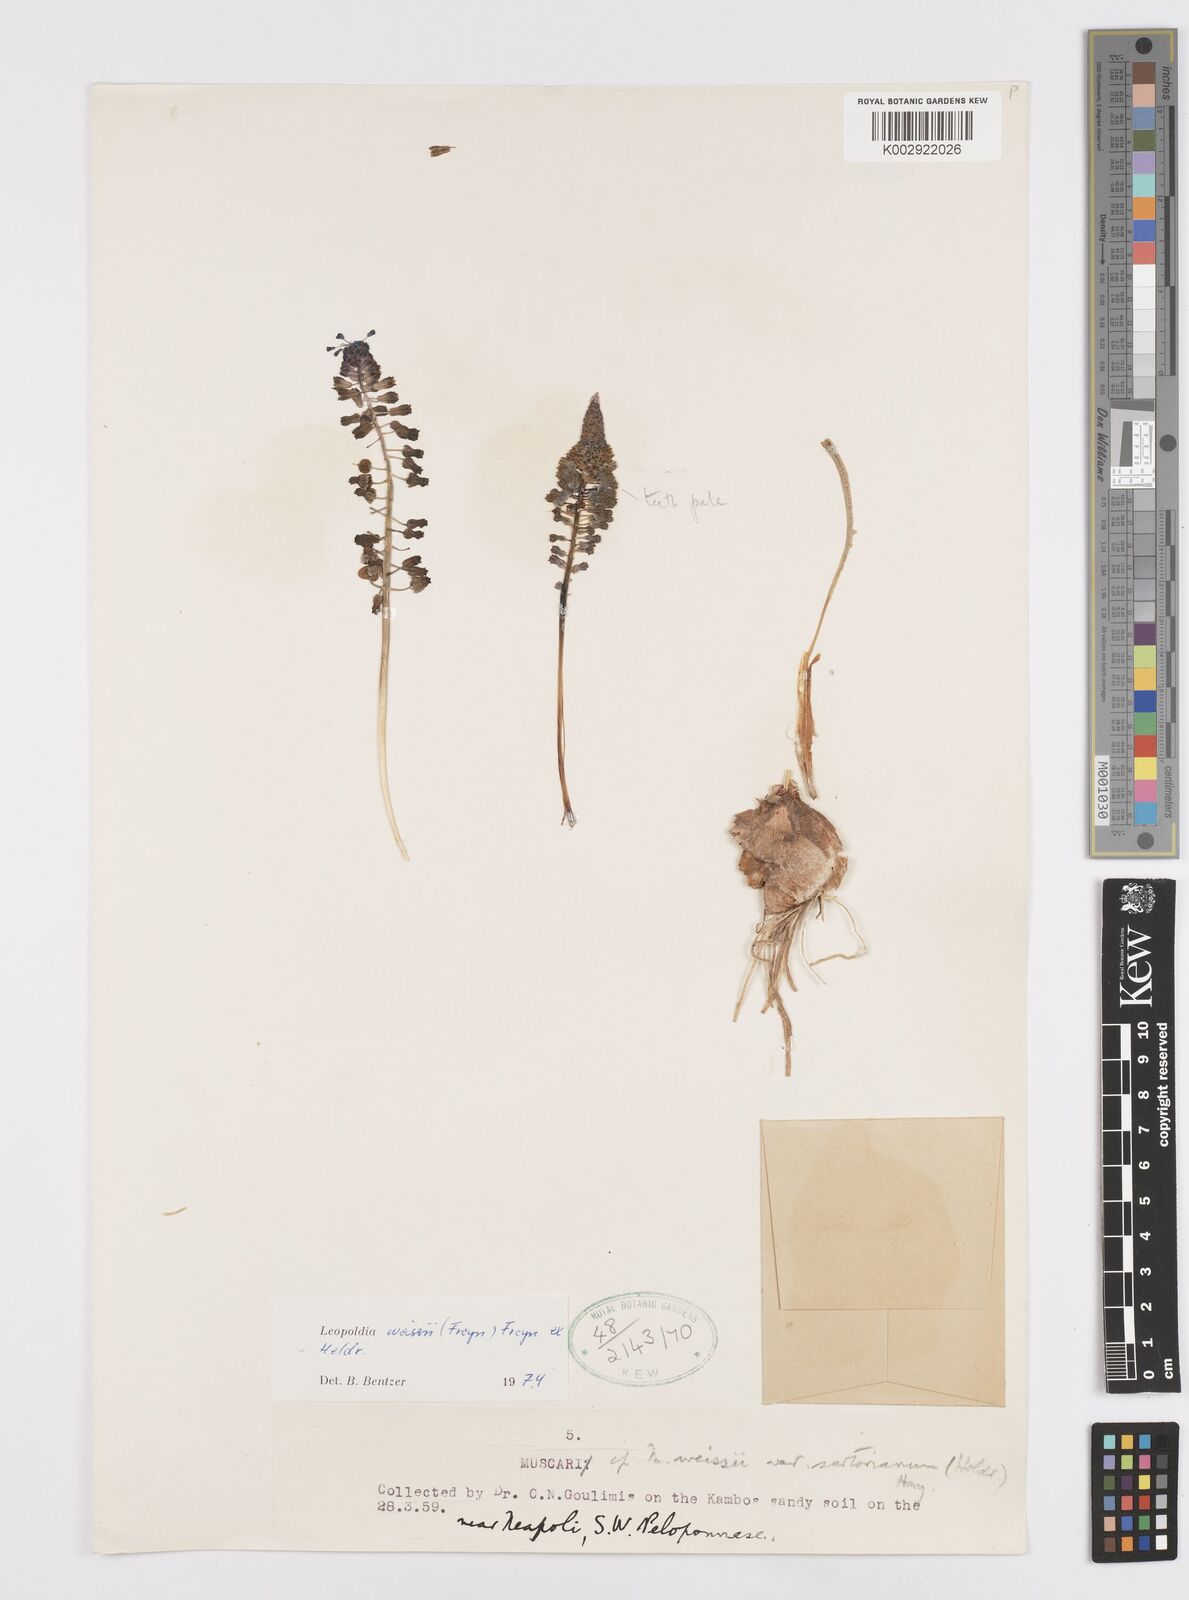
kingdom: Plantae
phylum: Tracheophyta
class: Liliopsida
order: Asparagales
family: Asparagaceae
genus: Muscari
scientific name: Muscari weissii
